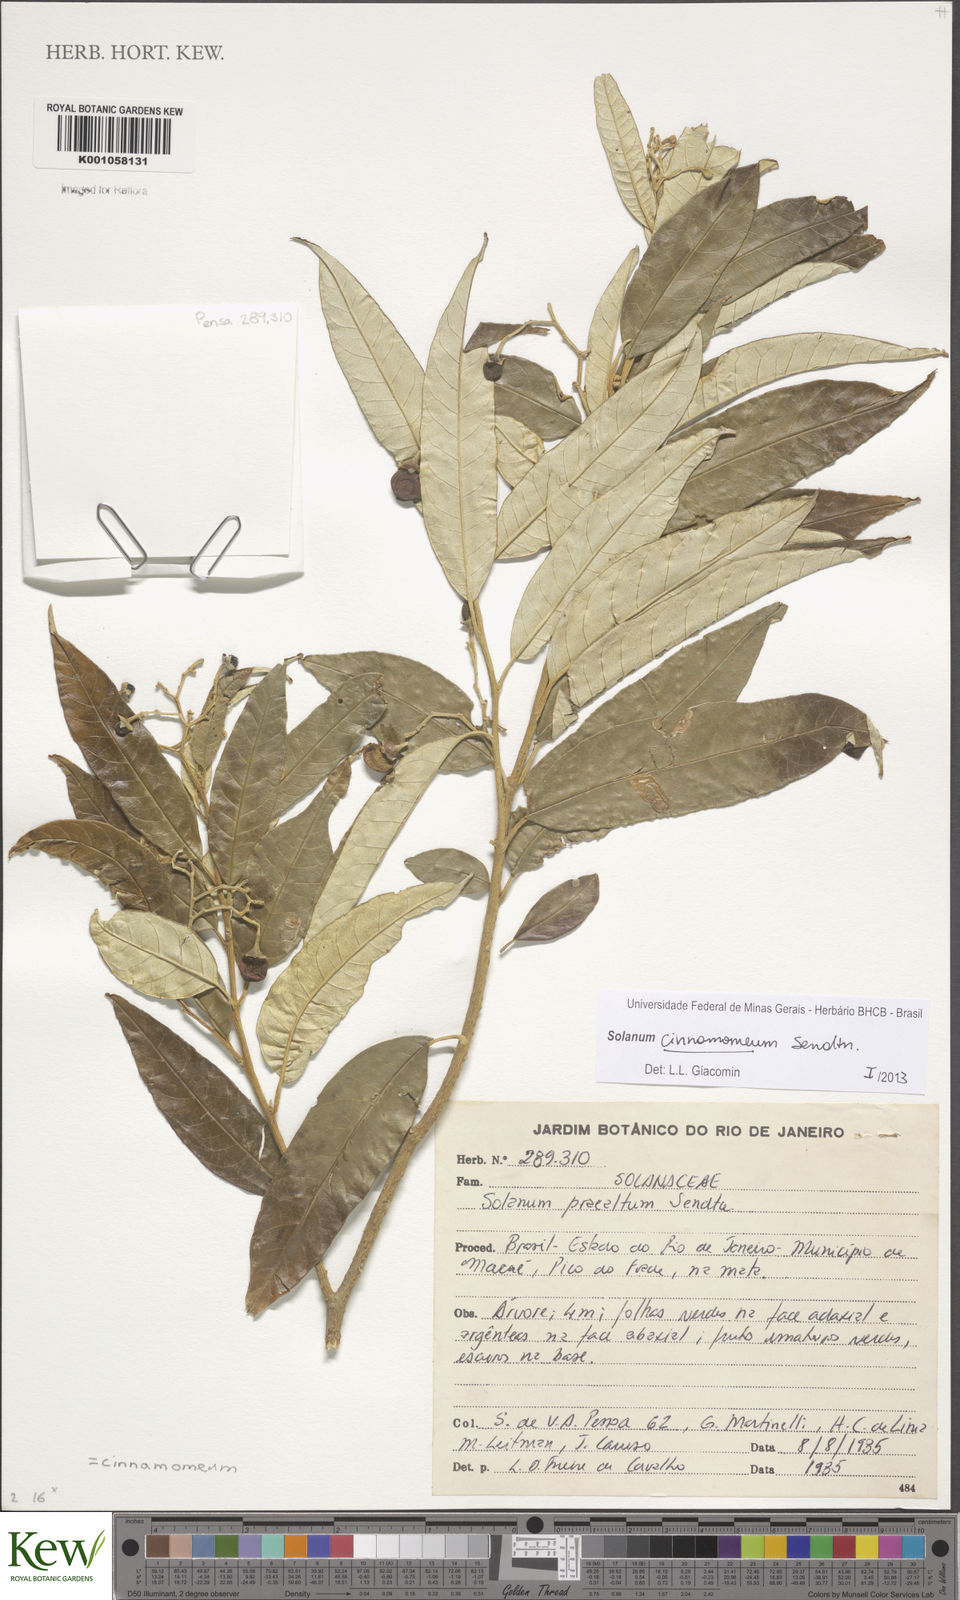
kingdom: Plantae
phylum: Tracheophyta
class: Magnoliopsida
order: Solanales
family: Solanaceae
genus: Solanum
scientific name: Solanum cinnamomeum
